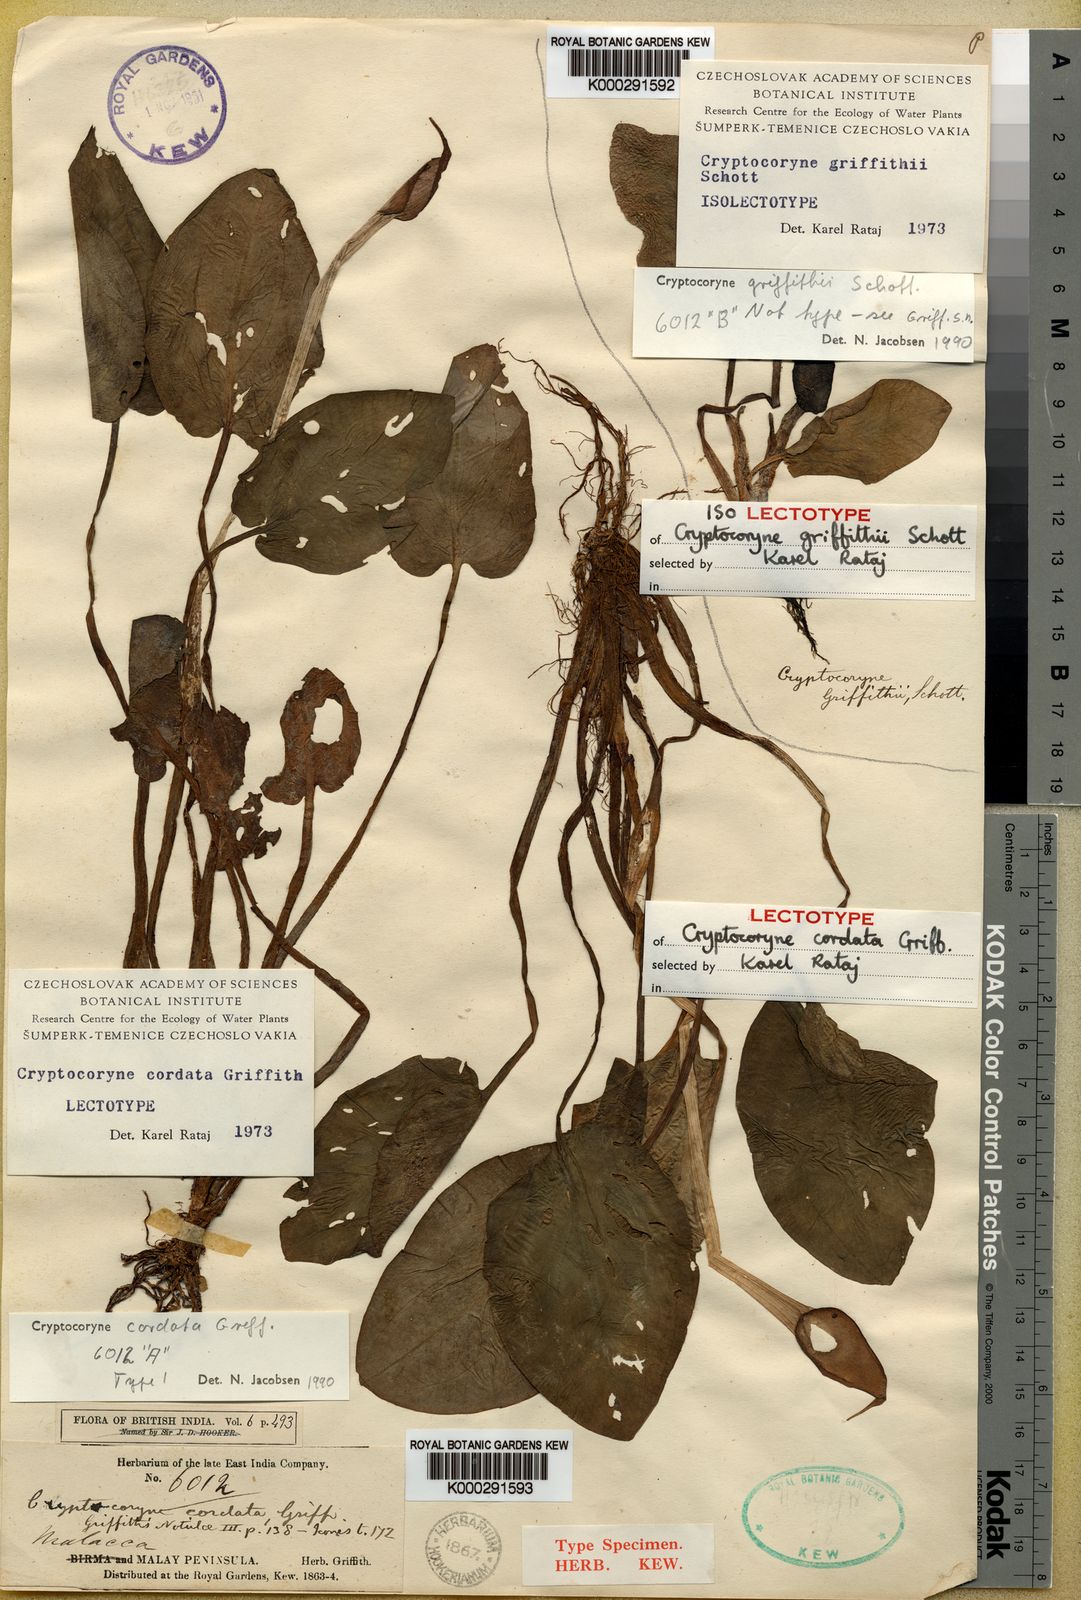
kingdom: Plantae
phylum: Tracheophyta
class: Liliopsida
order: Alismatales
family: Araceae
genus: Cryptocoryne
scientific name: Cryptocoryne cordata
